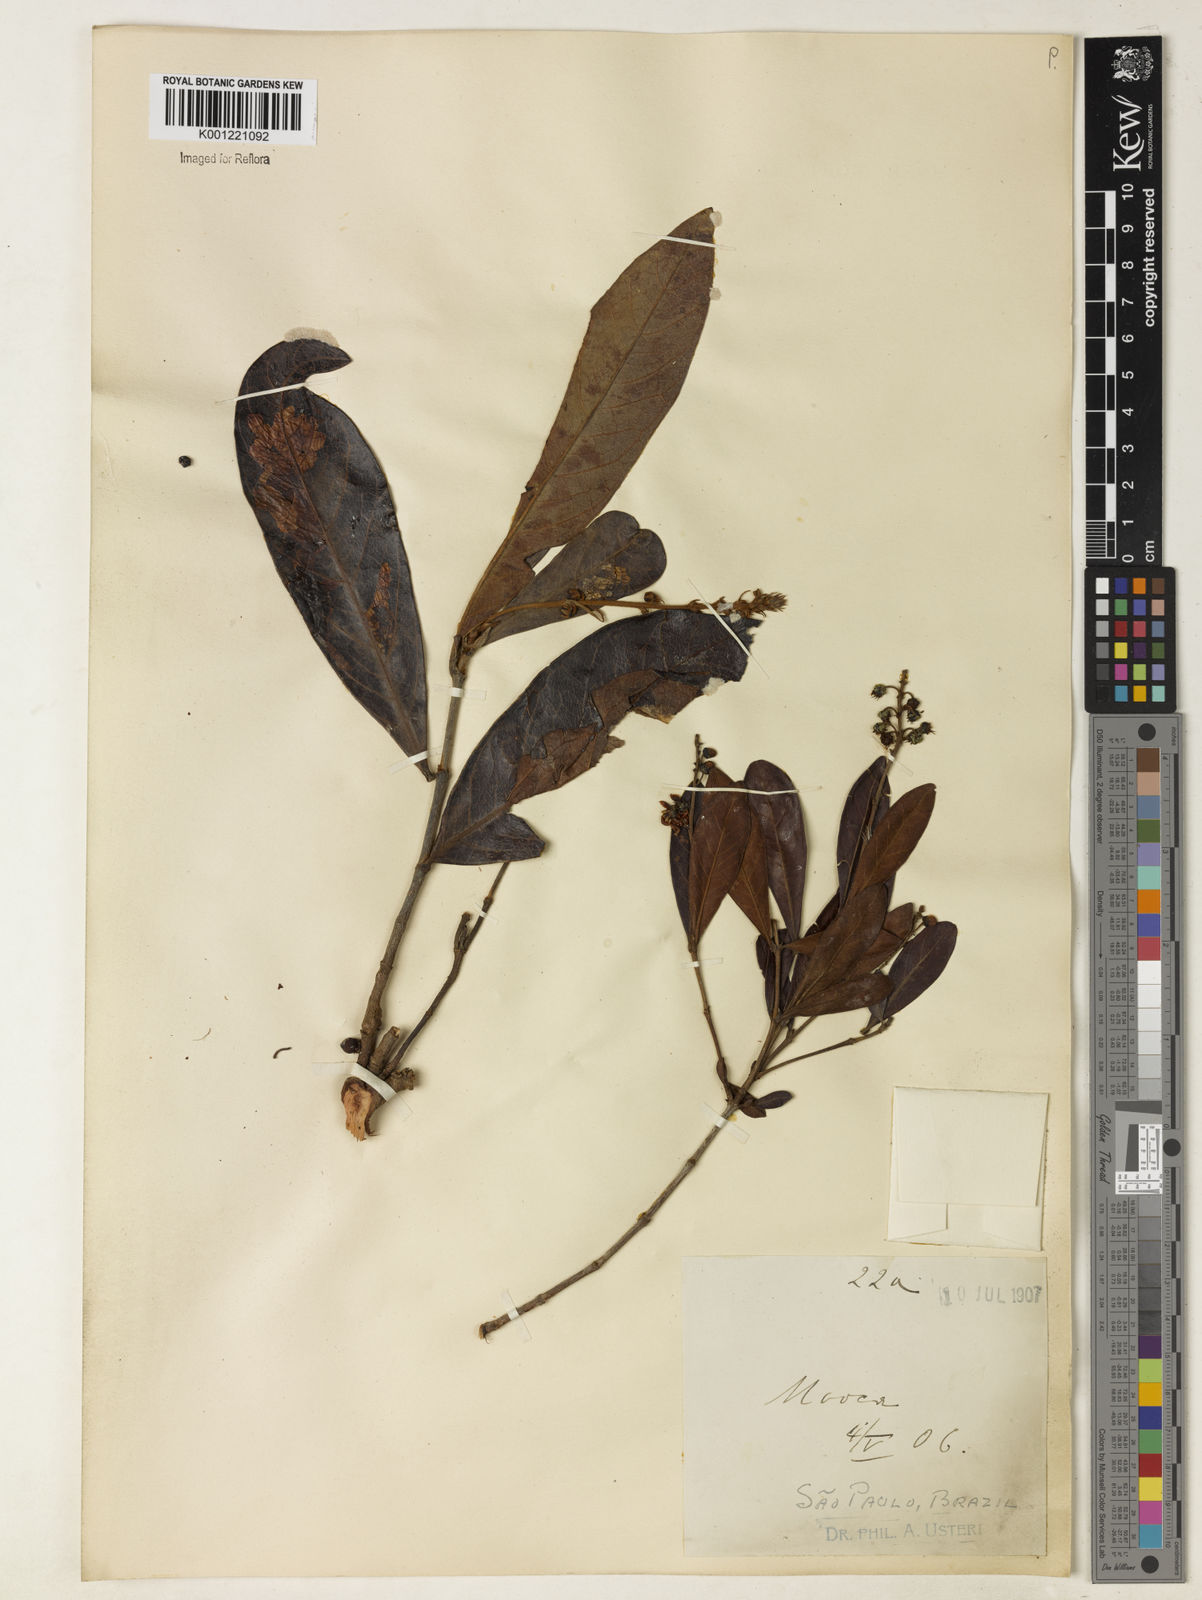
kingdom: Plantae
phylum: Tracheophyta
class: Magnoliopsida
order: Malpighiales
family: Malpighiaceae
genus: Byrsonima
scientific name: Byrsonima intermedia
